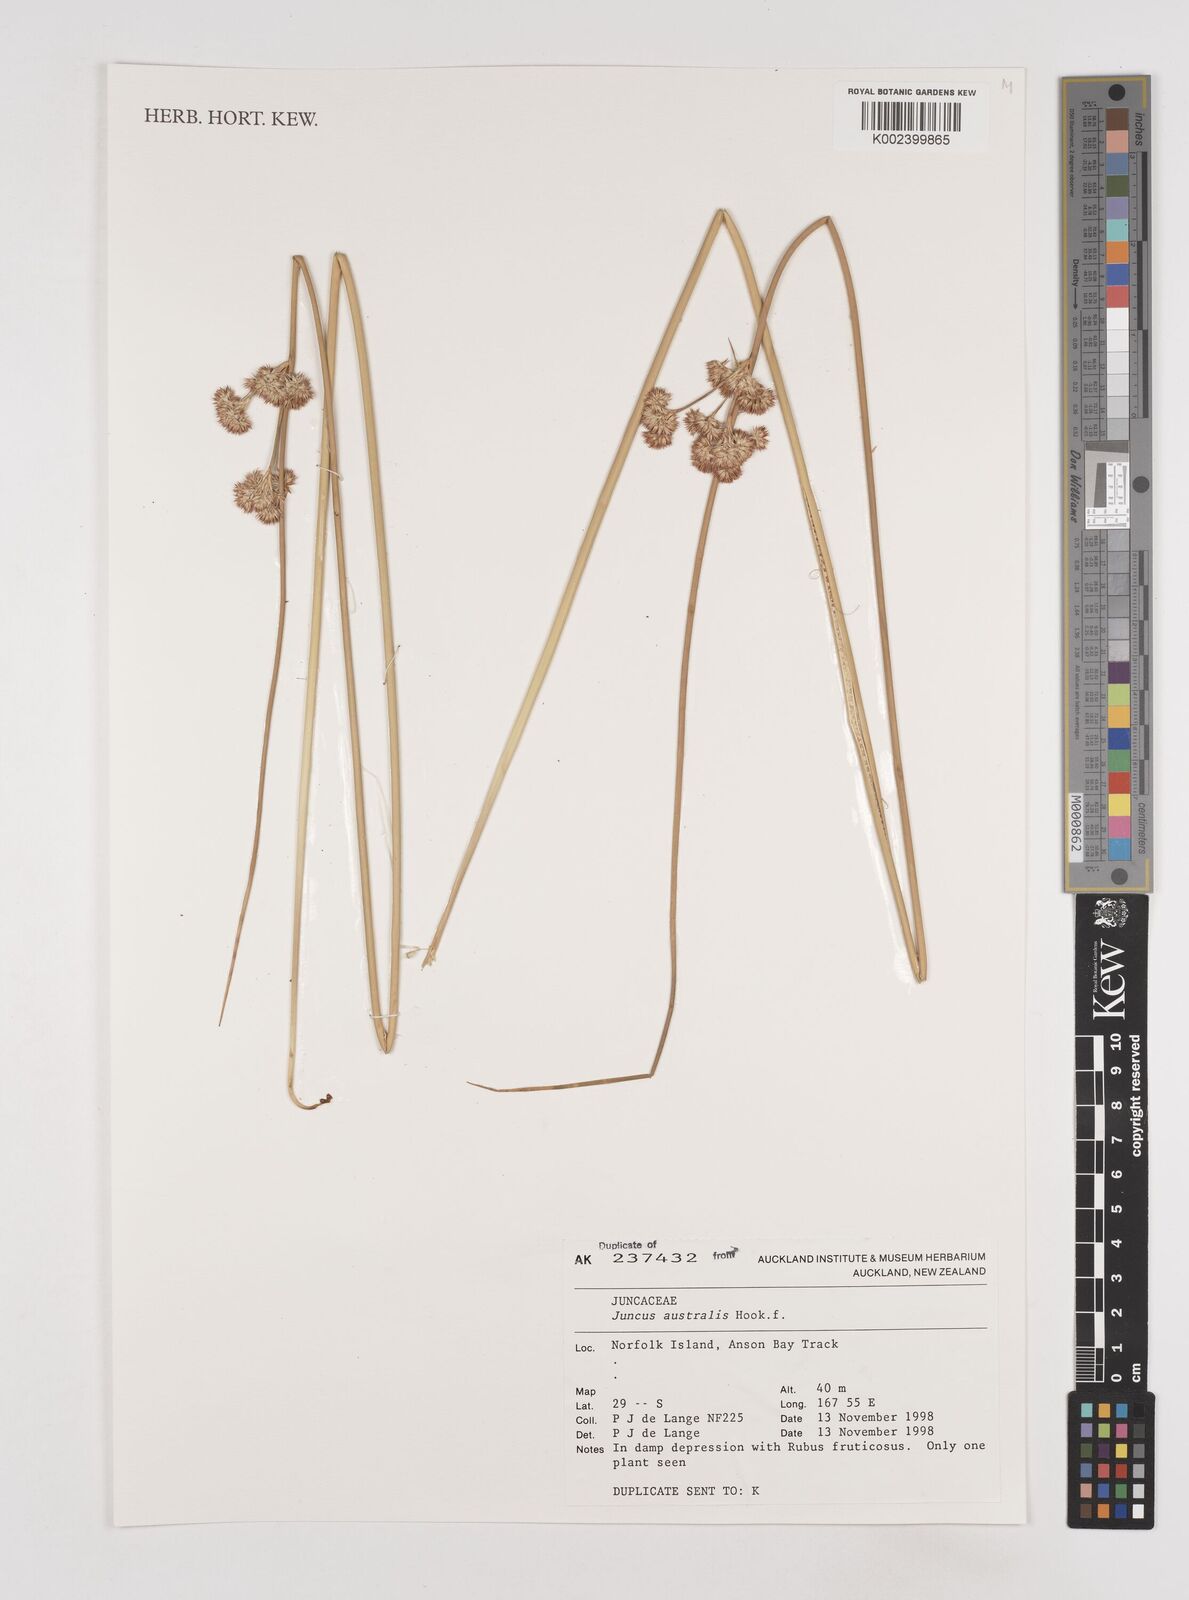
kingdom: Plantae
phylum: Tracheophyta
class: Liliopsida
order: Poales
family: Juncaceae
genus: Juncus
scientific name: Juncus australis
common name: Austral rush
